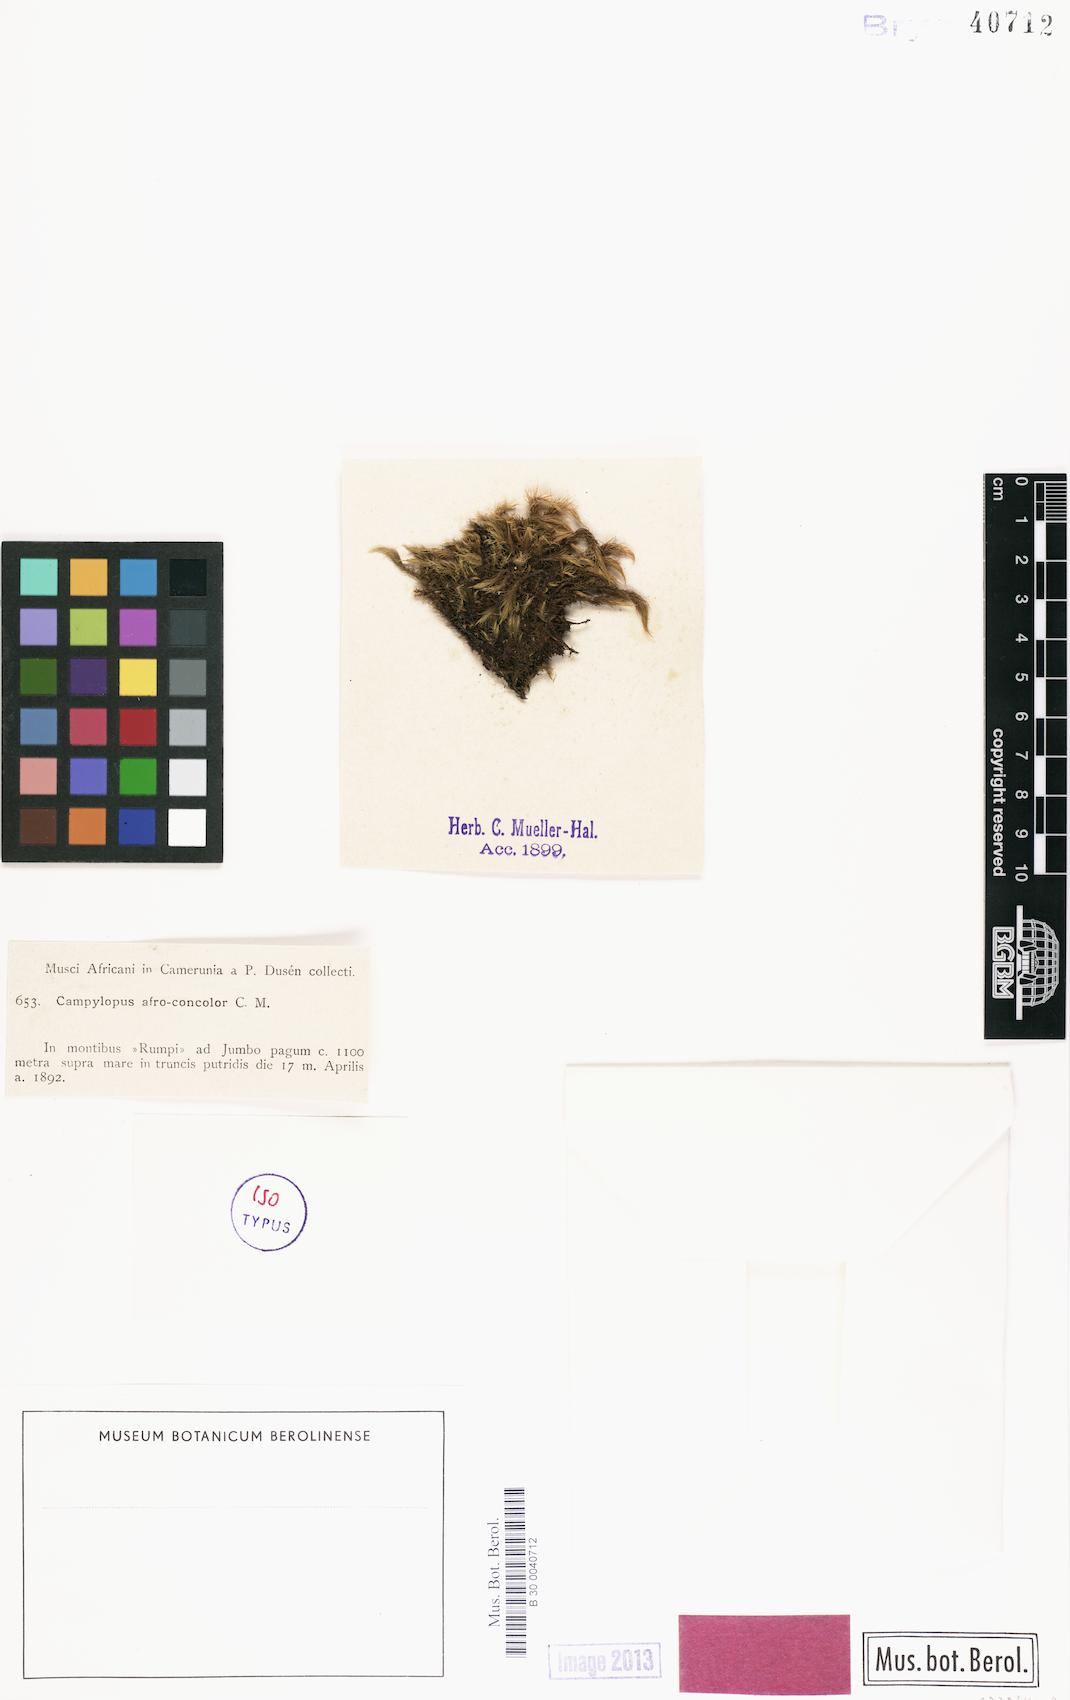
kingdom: Plantae
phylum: Bryophyta
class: Bryopsida
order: Dicranales
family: Leucobryaceae
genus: Campylopus
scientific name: Campylopus savannarum
